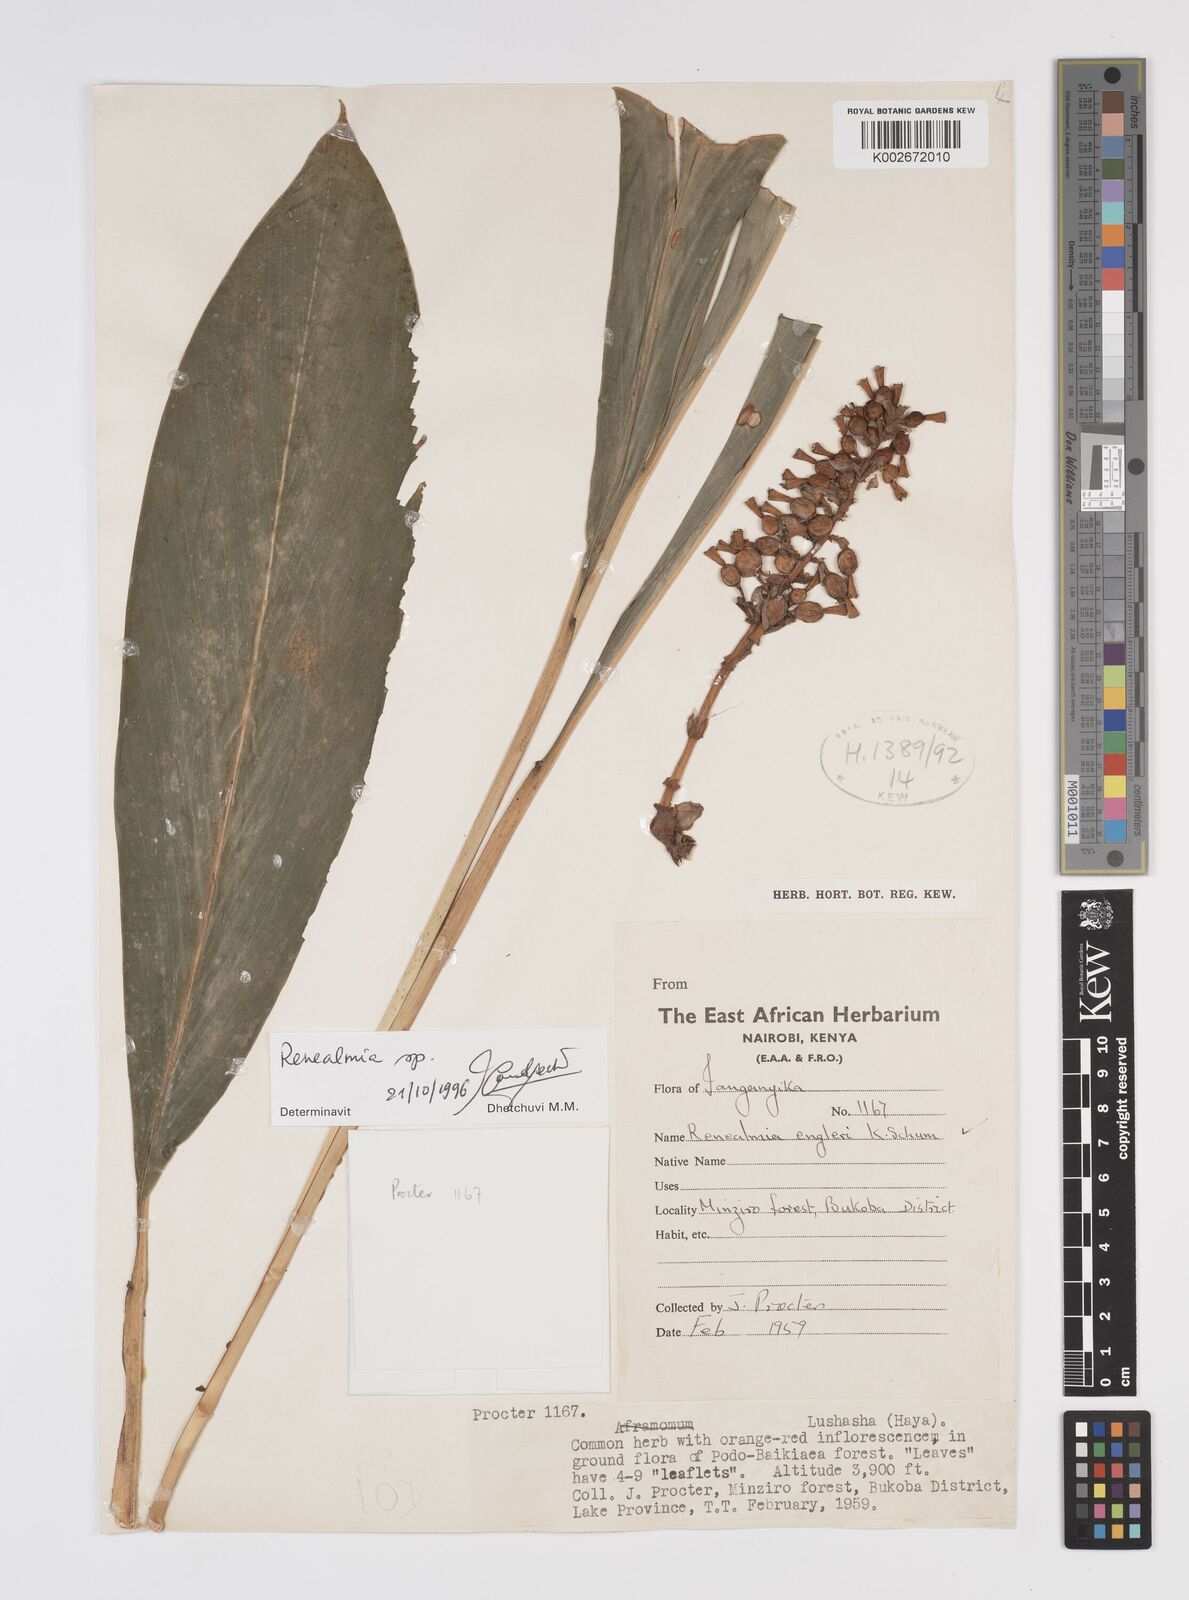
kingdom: Plantae
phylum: Tracheophyta
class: Liliopsida
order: Zingiberales
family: Zingiberaceae
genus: Renealmia
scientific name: Renealmia
